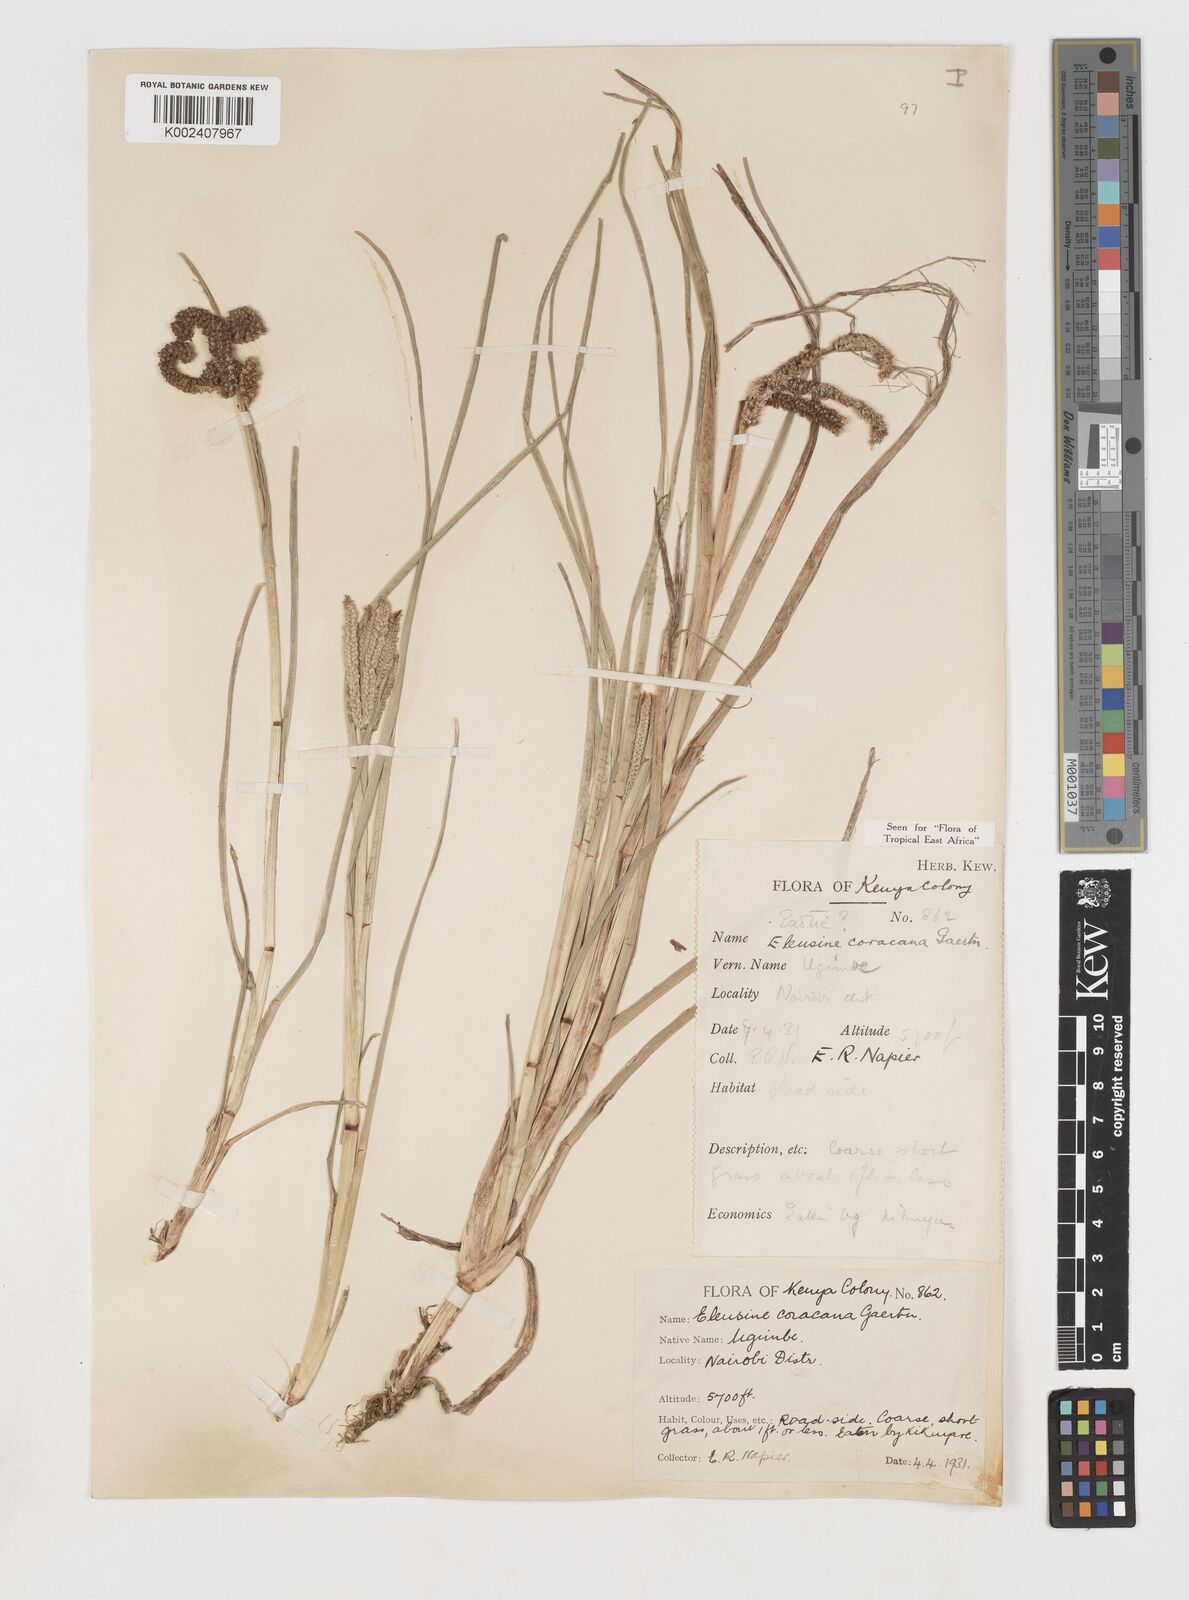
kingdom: Plantae
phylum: Tracheophyta
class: Liliopsida
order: Poales
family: Poaceae
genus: Eleusine
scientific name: Eleusine coracana
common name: Finger millet
